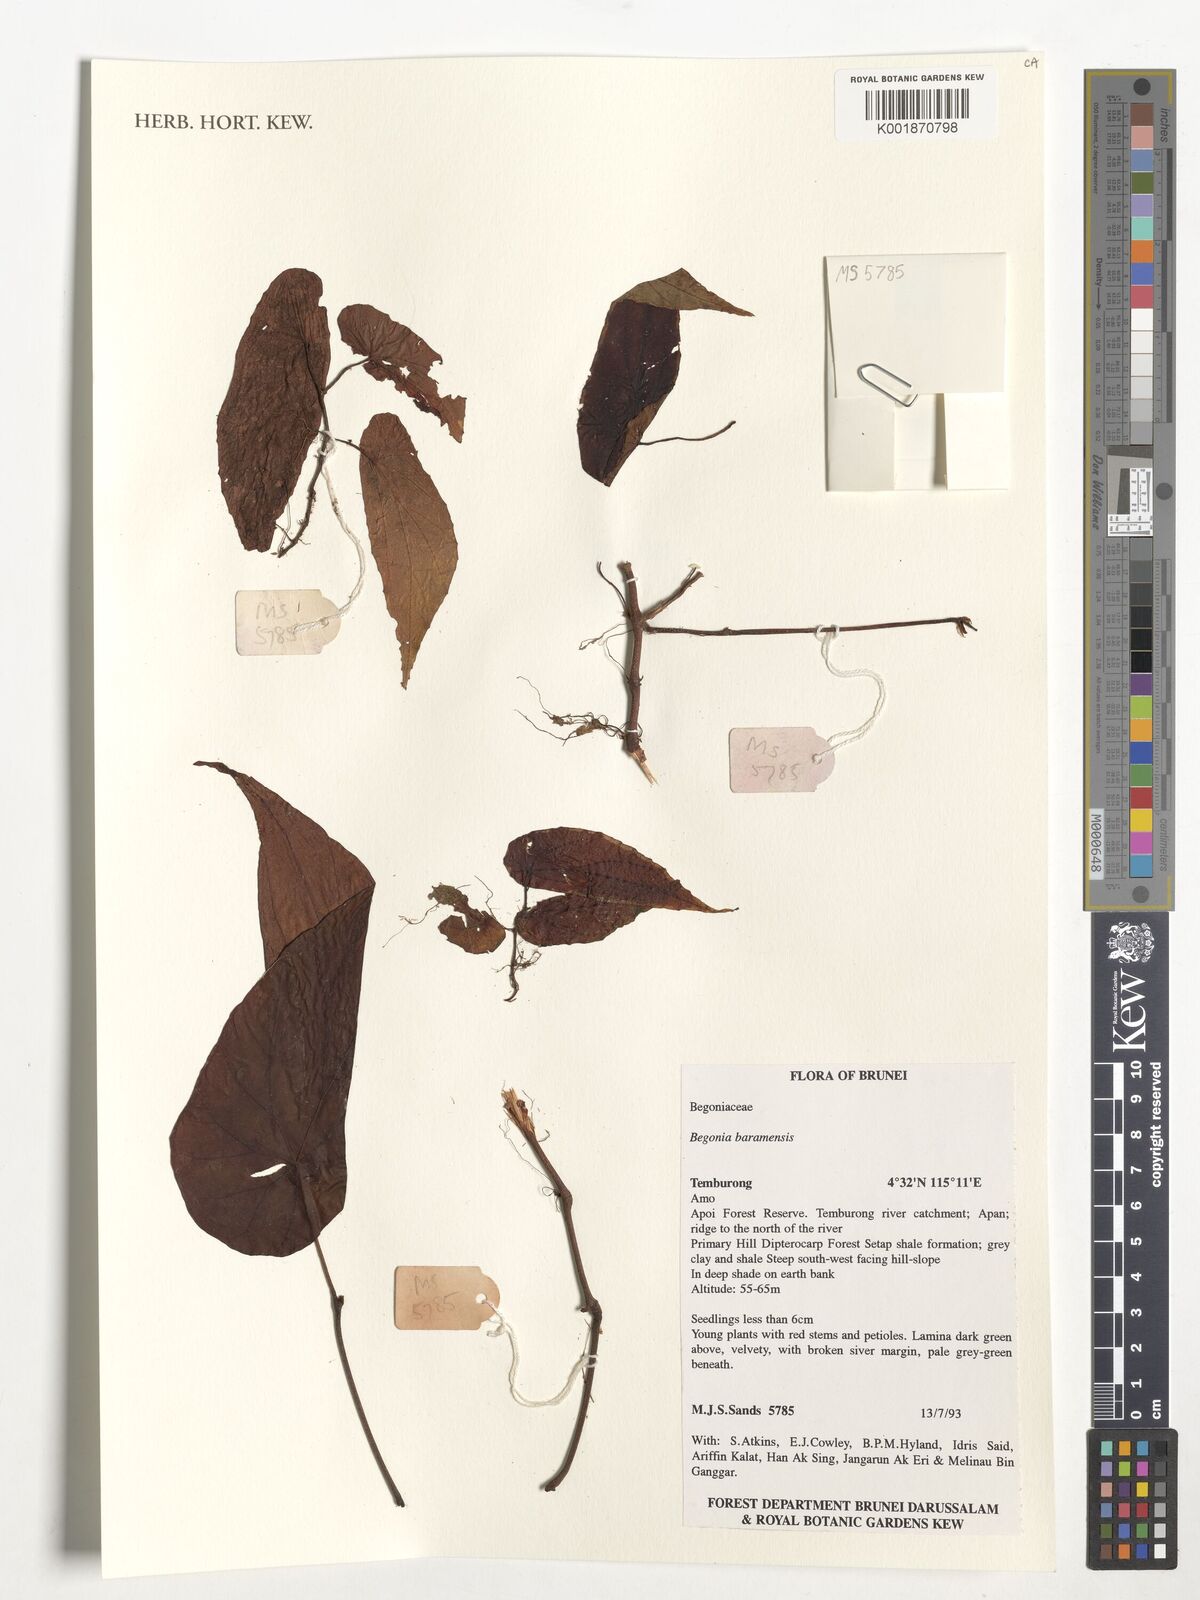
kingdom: Plantae
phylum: Tracheophyta
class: Magnoliopsida
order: Cucurbitales
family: Begoniaceae
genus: Begonia
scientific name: Begonia baramensis
